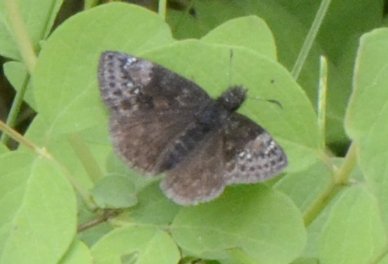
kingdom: Animalia
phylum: Arthropoda
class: Insecta
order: Lepidoptera
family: Hesperiidae
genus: Gesta
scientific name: Gesta
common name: Juvenal's Duskywing
